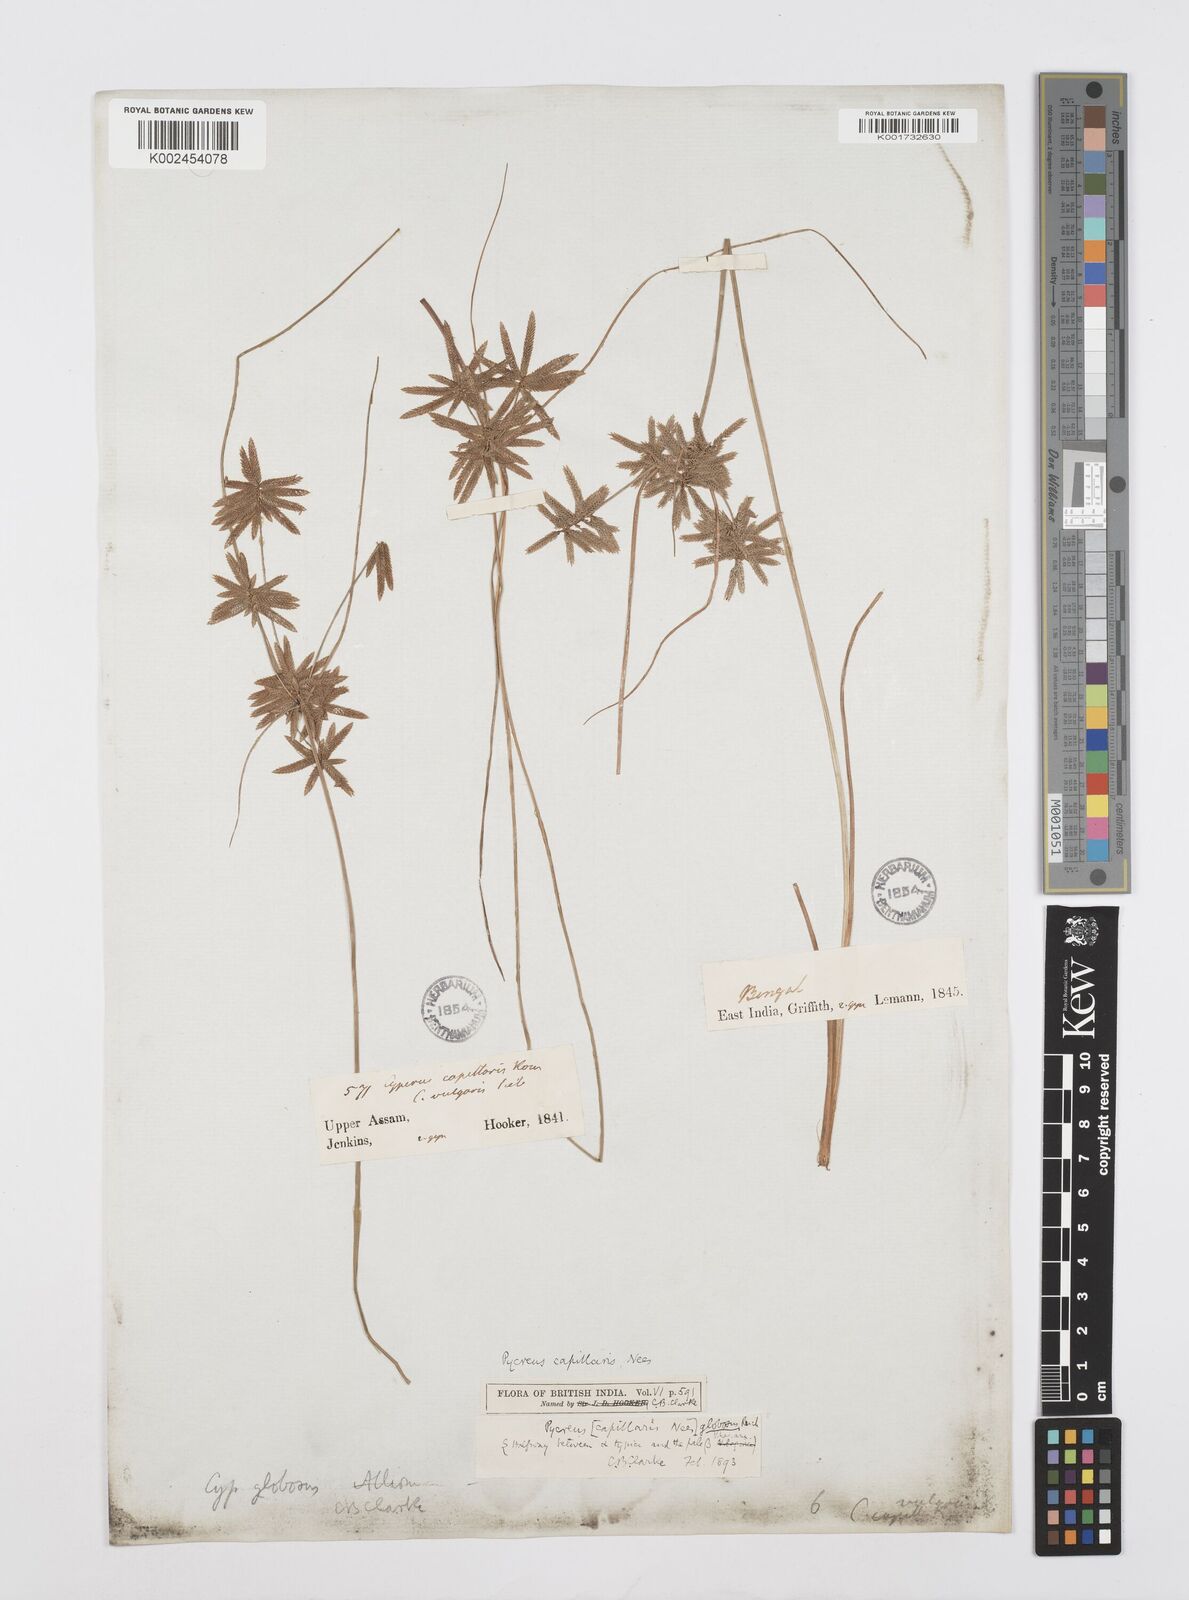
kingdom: Plantae
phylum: Tracheophyta
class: Liliopsida
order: Poales
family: Cyperaceae
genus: Cyperus
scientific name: Cyperus flavidus
